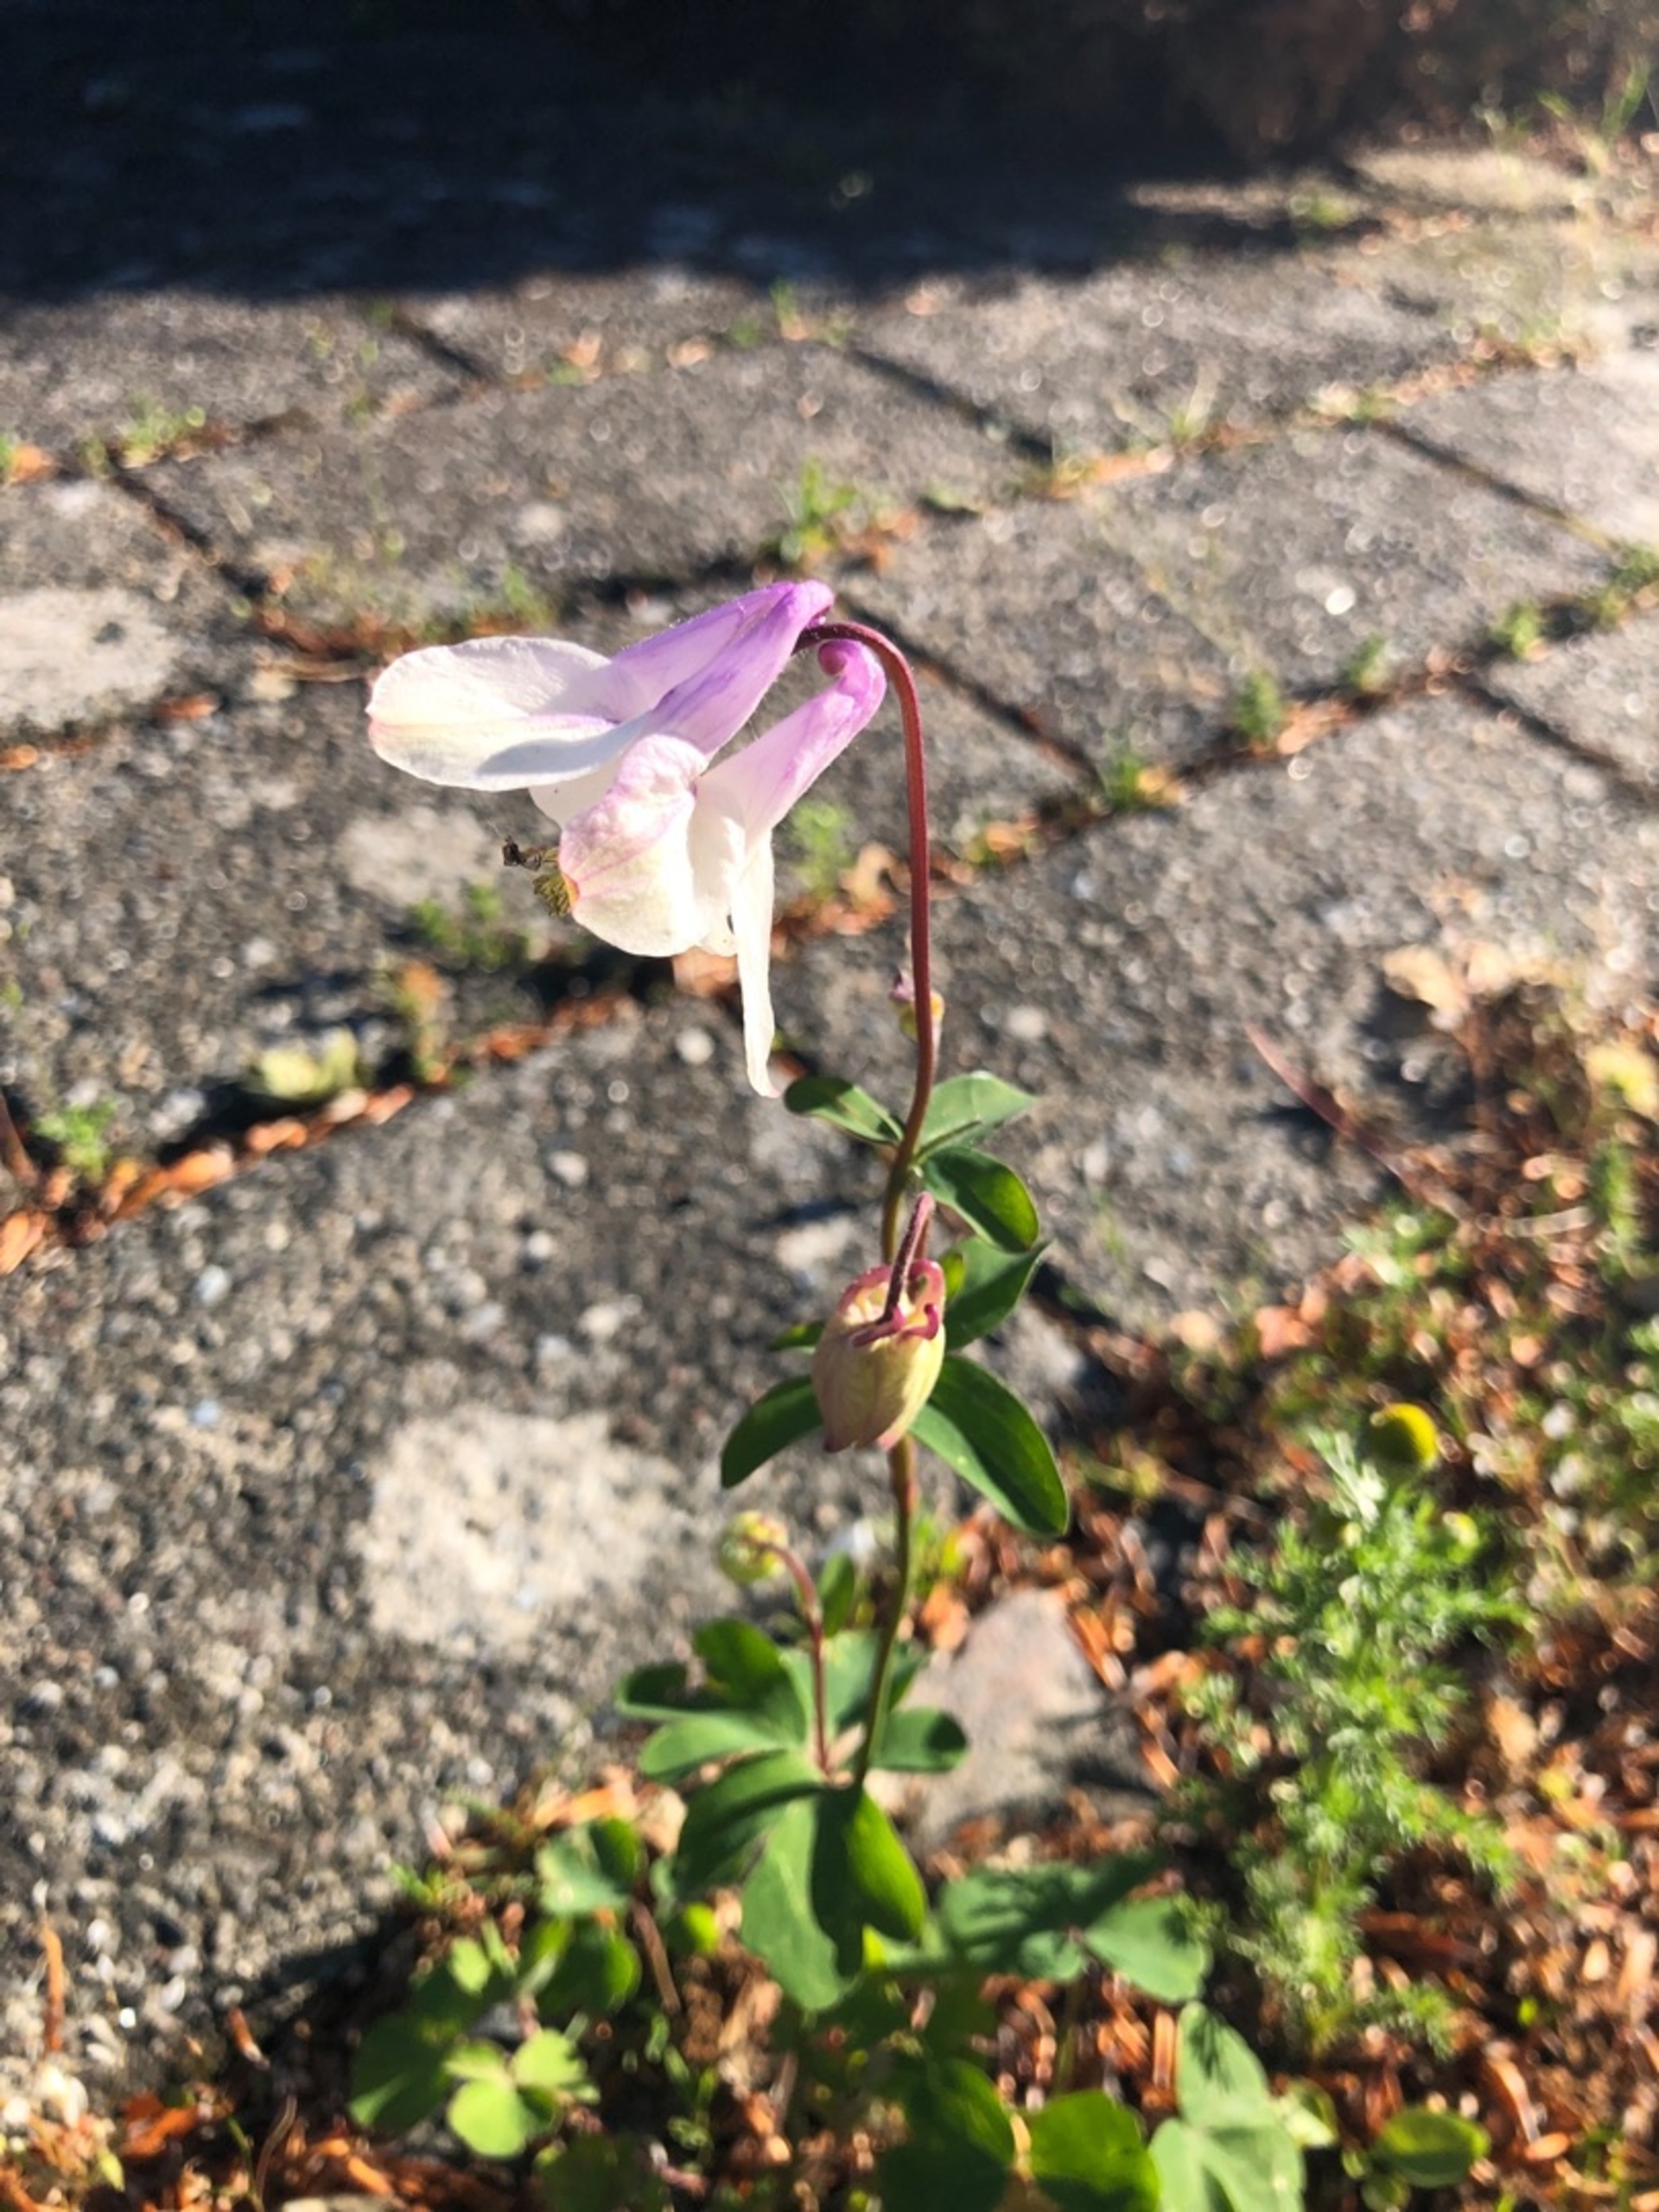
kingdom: Plantae
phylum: Tracheophyta
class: Magnoliopsida
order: Ranunculales
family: Ranunculaceae
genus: Aquilegia
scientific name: Aquilegia vulgaris
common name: Akeleje
